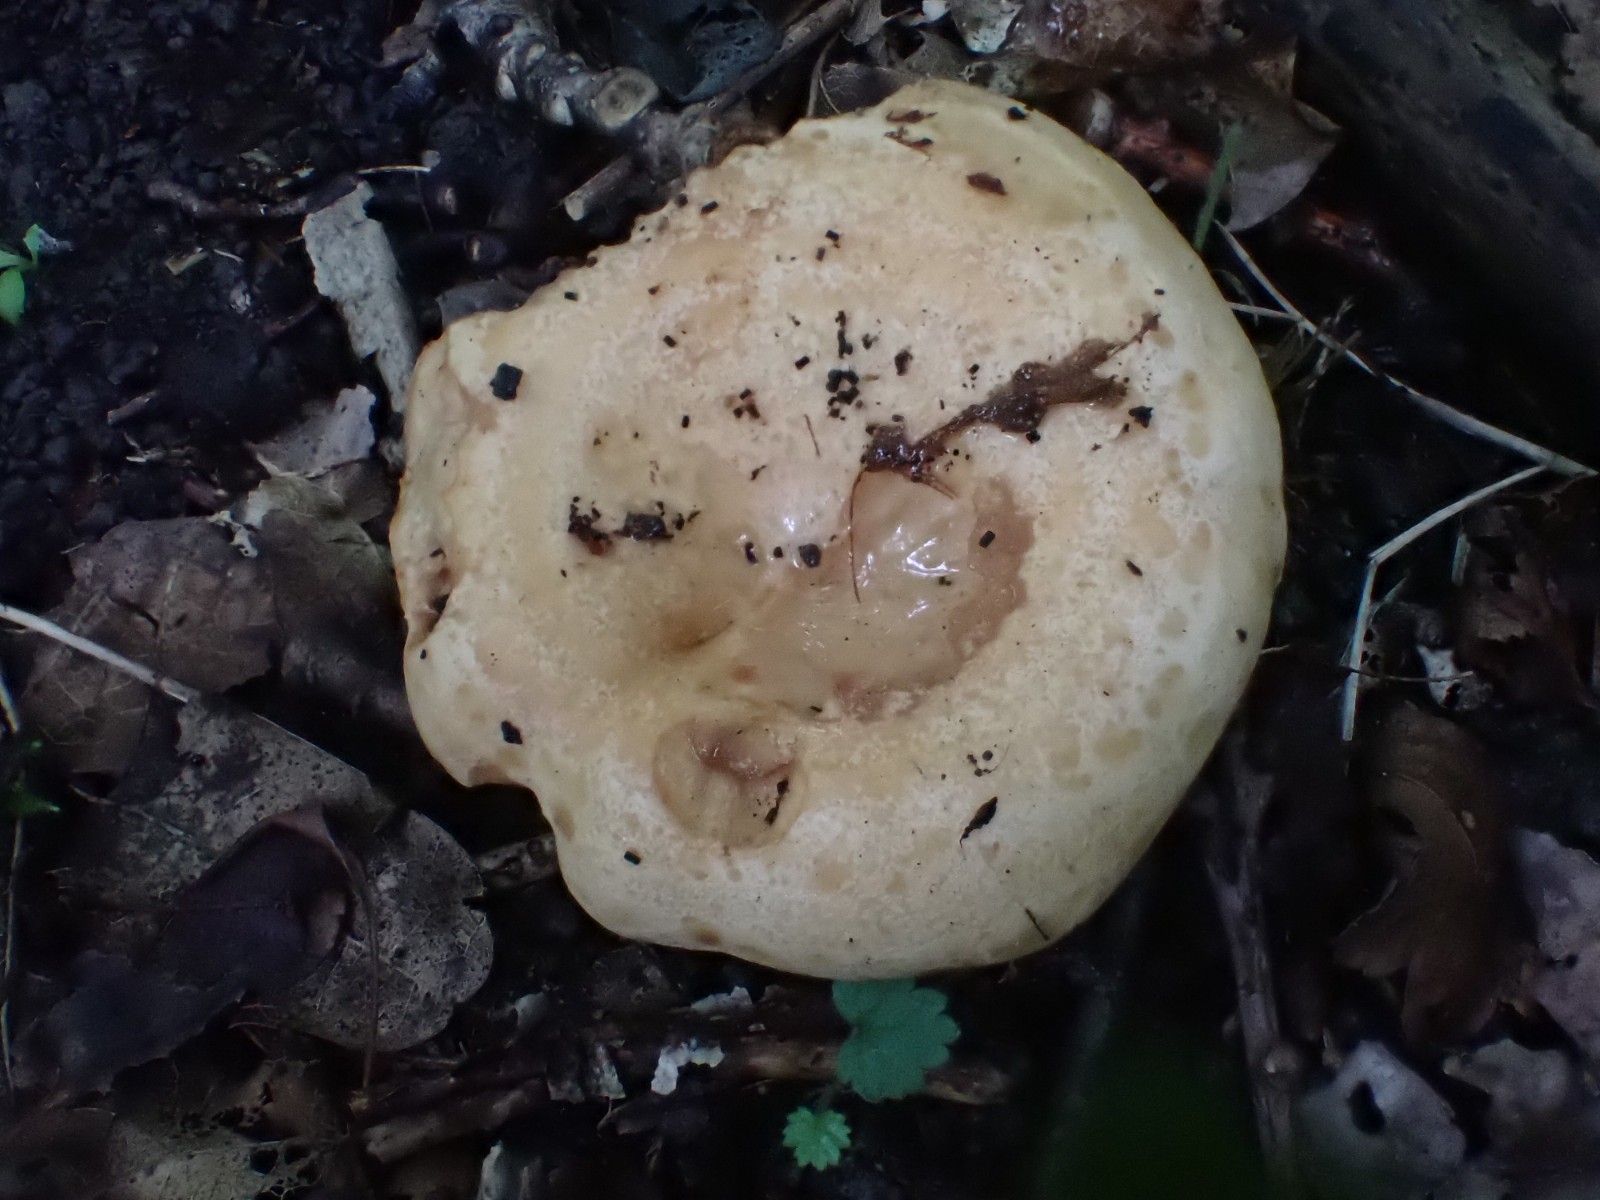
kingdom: Fungi
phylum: Basidiomycota
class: Agaricomycetes
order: Russulales
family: Russulaceae
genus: Lactarius
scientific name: Lactarius acerrimus
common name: brændende mælkehat
